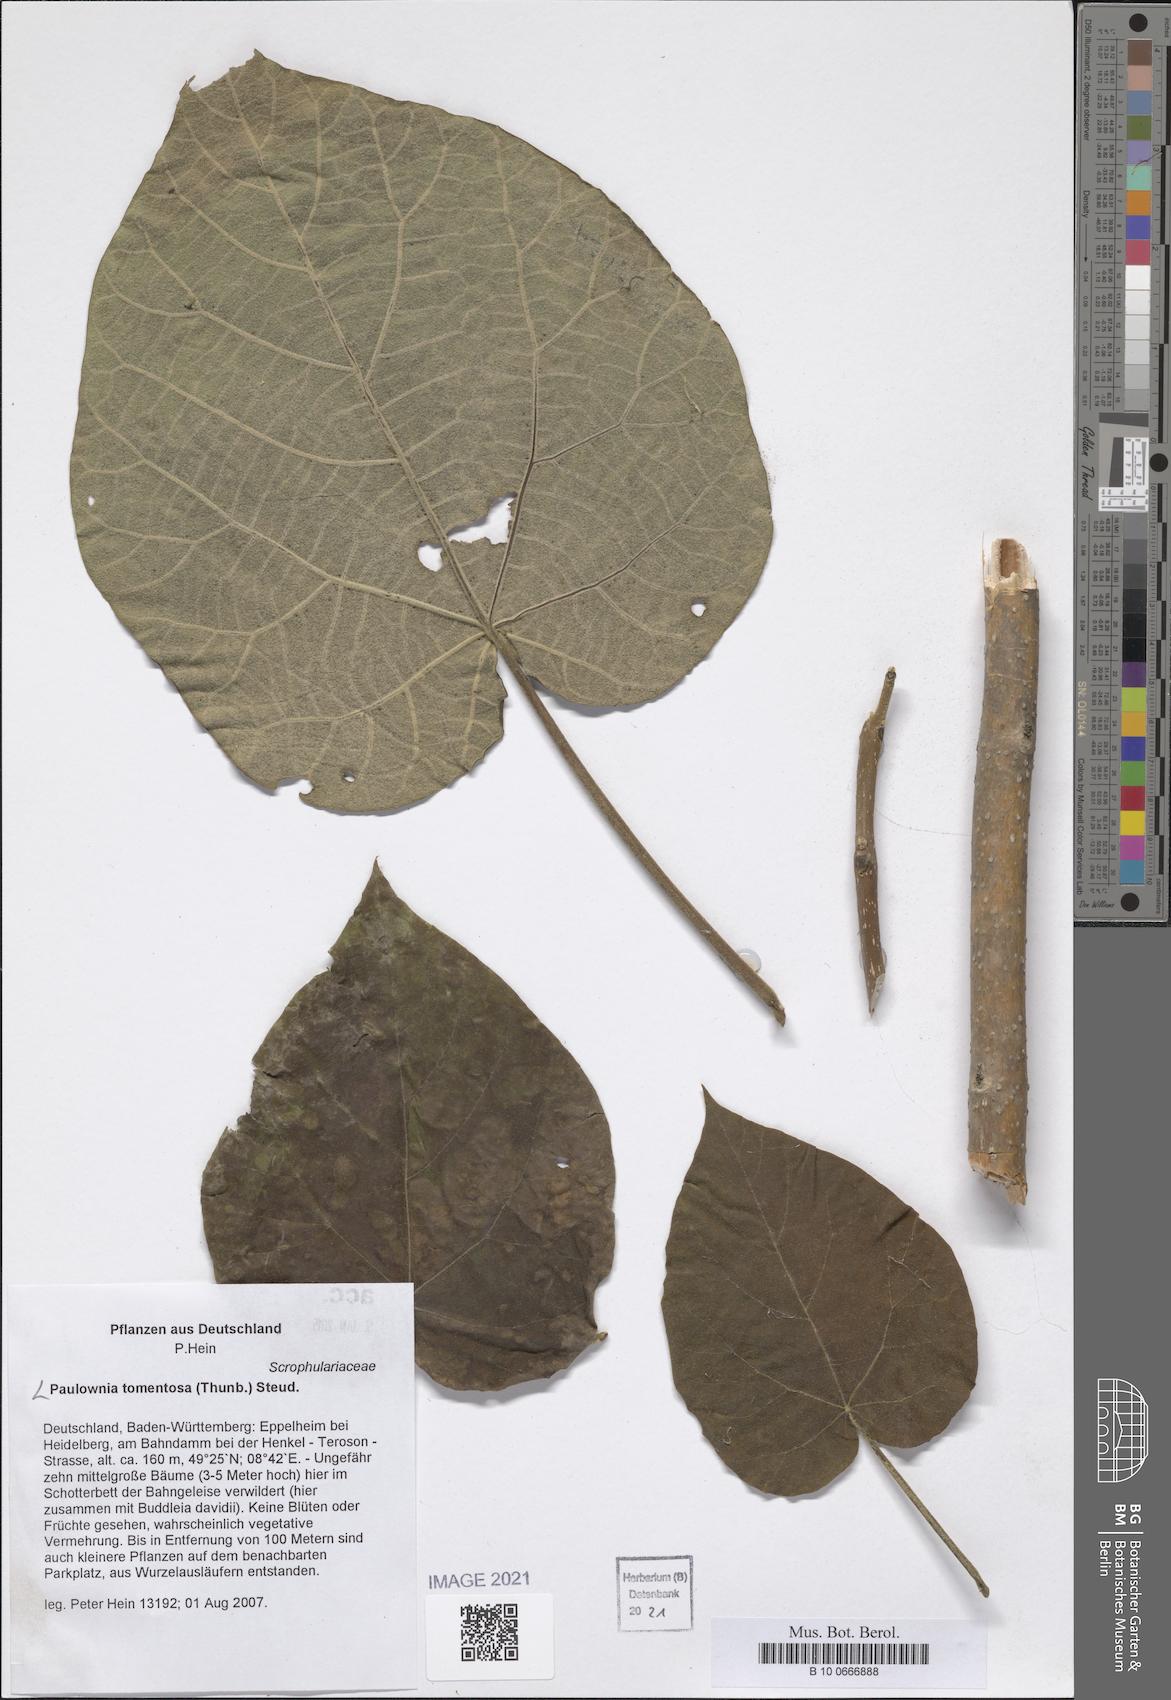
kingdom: Plantae
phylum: Tracheophyta
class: Magnoliopsida
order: Lamiales
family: Paulowniaceae
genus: Paulownia
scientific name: Paulownia tomentosa
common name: Foxglove-tree
